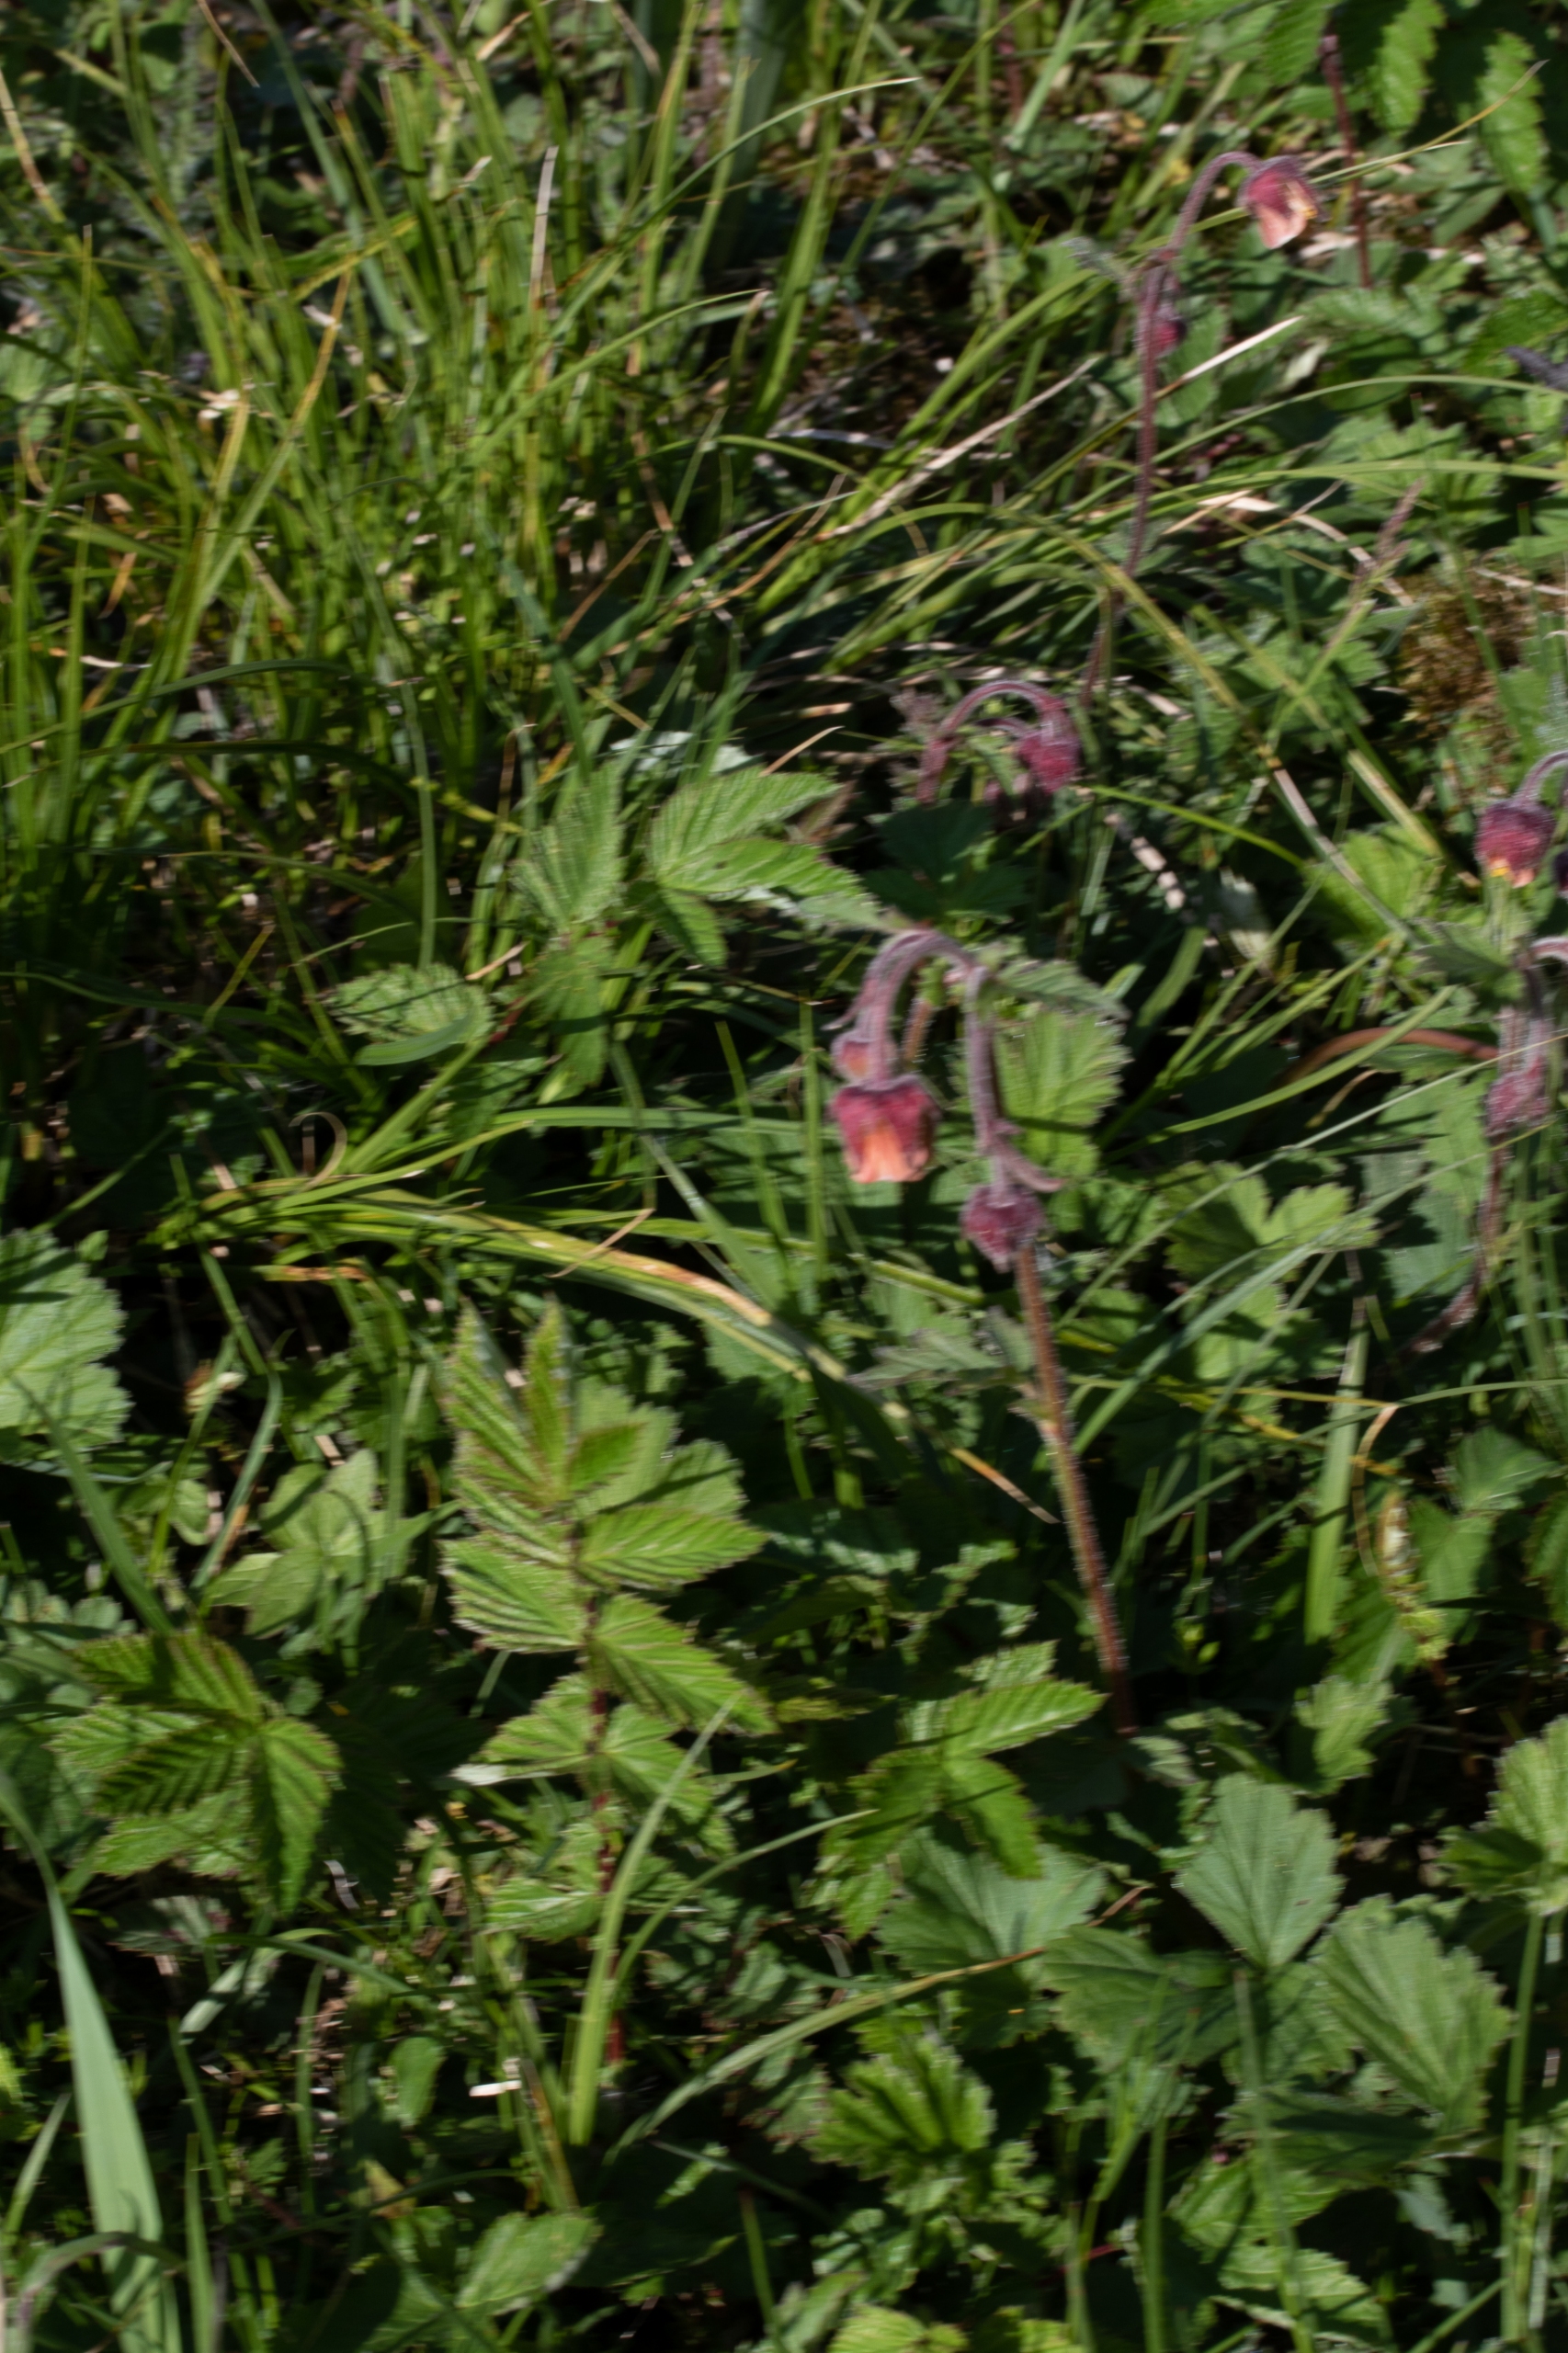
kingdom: Plantae
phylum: Tracheophyta
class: Magnoliopsida
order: Rosales
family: Rosaceae
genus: Geum
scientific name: Geum rivale
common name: Eng-nellikerod
